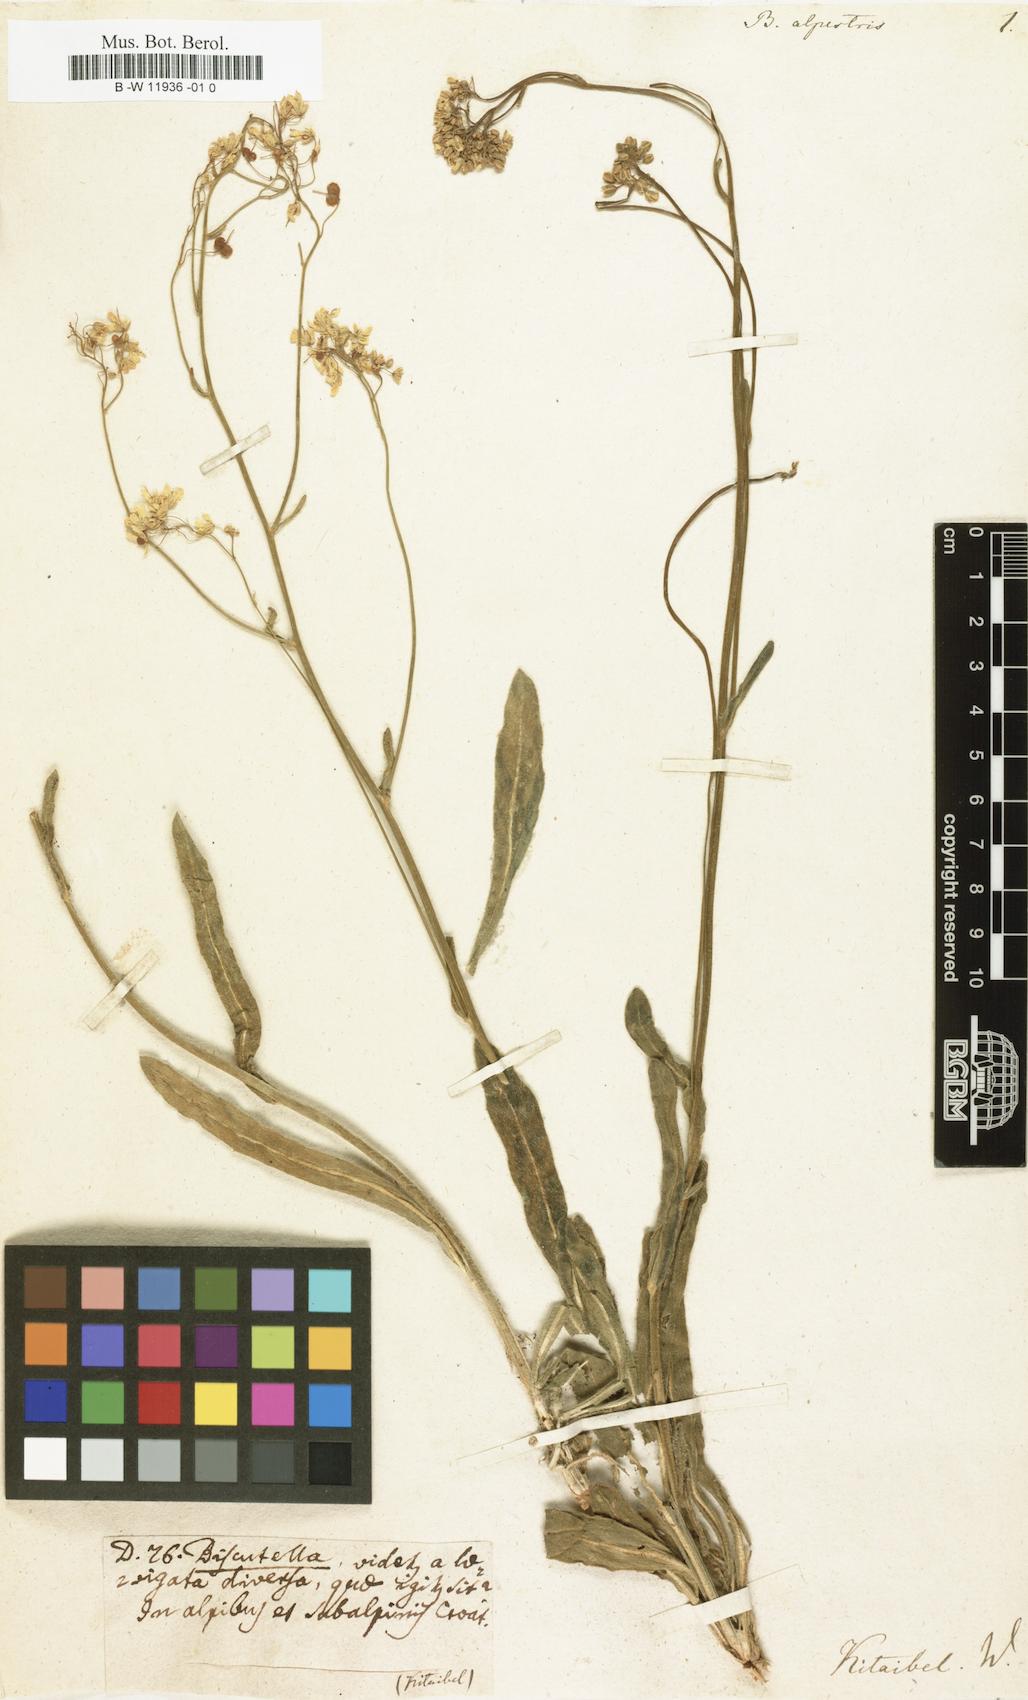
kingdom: Plantae
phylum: Tracheophyta
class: Magnoliopsida
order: Brassicales
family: Brassicaceae
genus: Biscutella
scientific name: Biscutella laevigata
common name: Buckler mustard
